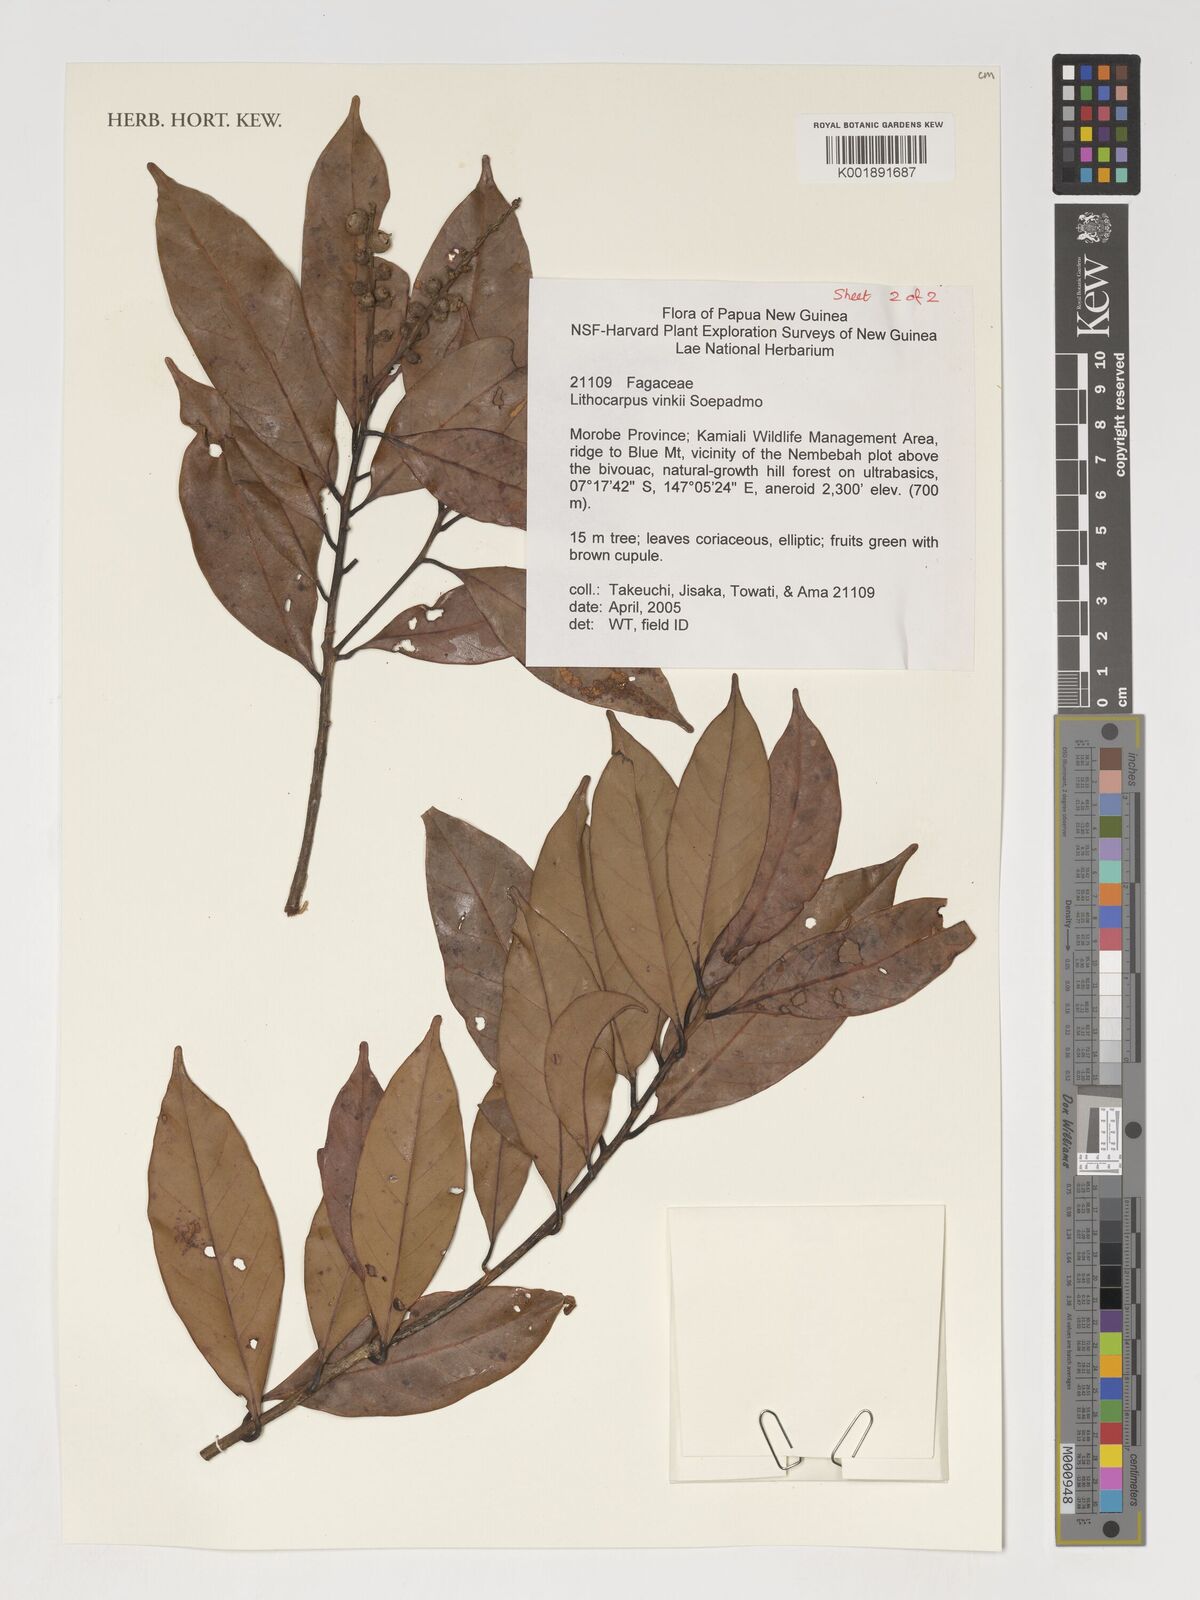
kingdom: Plantae
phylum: Tracheophyta
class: Magnoliopsida
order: Fagales
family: Fagaceae
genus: Lithocarpus
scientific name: Lithocarpus vinkii
